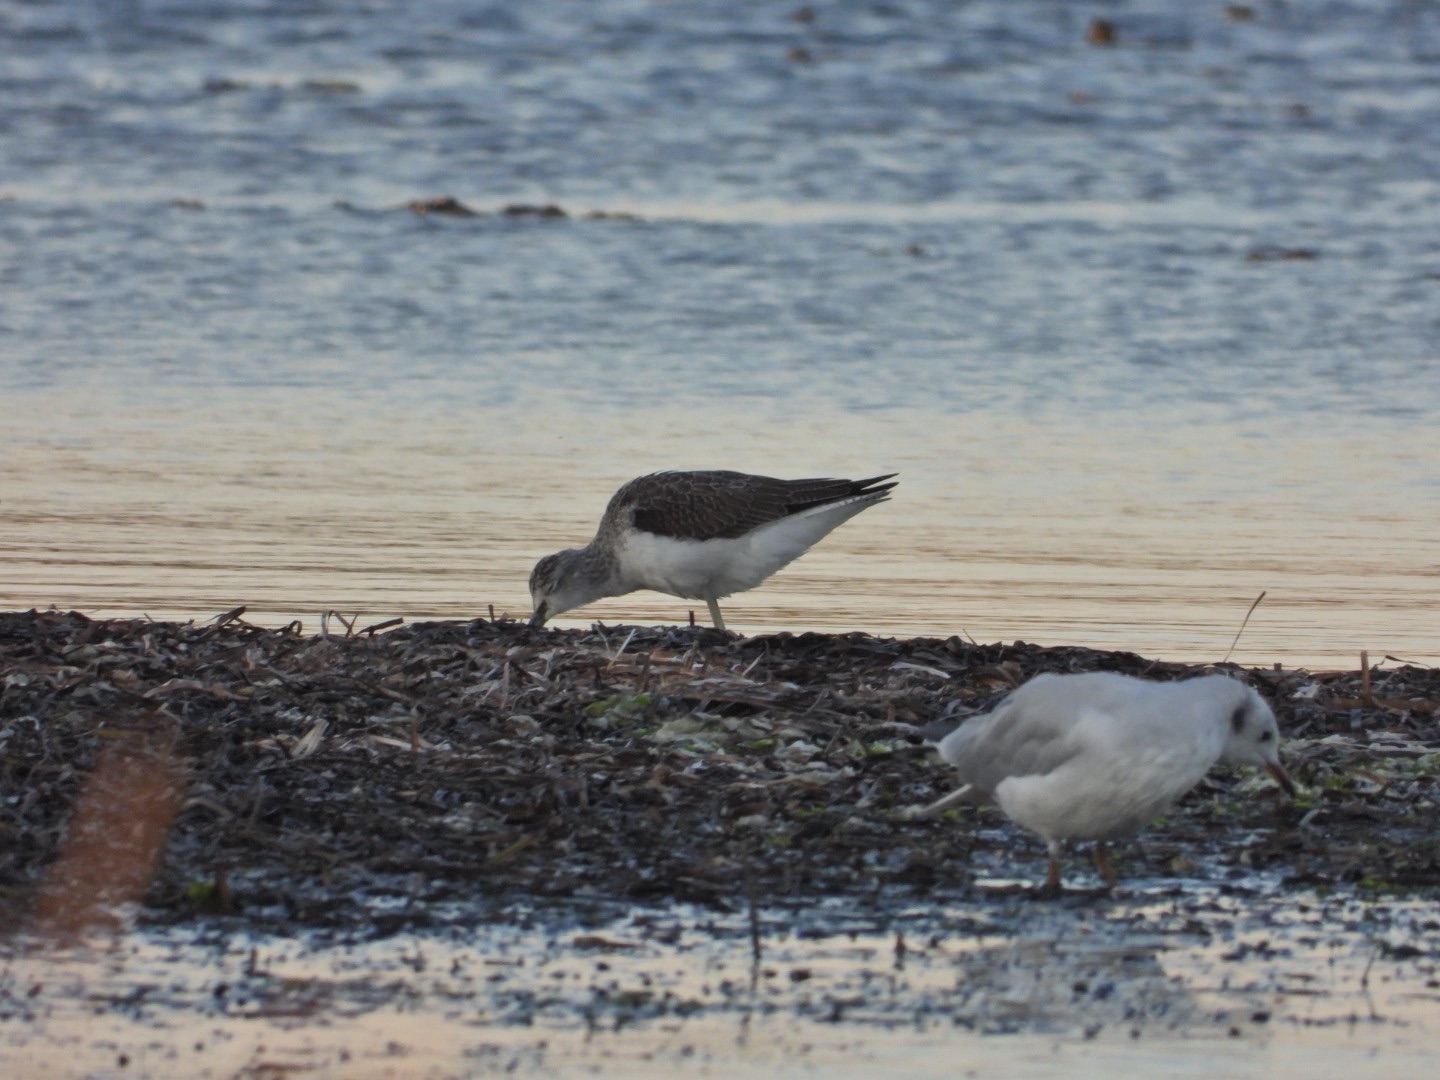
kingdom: Animalia
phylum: Chordata
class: Aves
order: Charadriiformes
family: Scolopacidae
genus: Tringa
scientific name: Tringa nebularia
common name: Hvidklire
